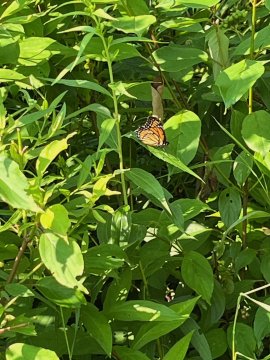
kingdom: Animalia
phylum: Arthropoda
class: Insecta
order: Lepidoptera
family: Nymphalidae
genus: Limenitis
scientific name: Limenitis archippus
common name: Viceroy
